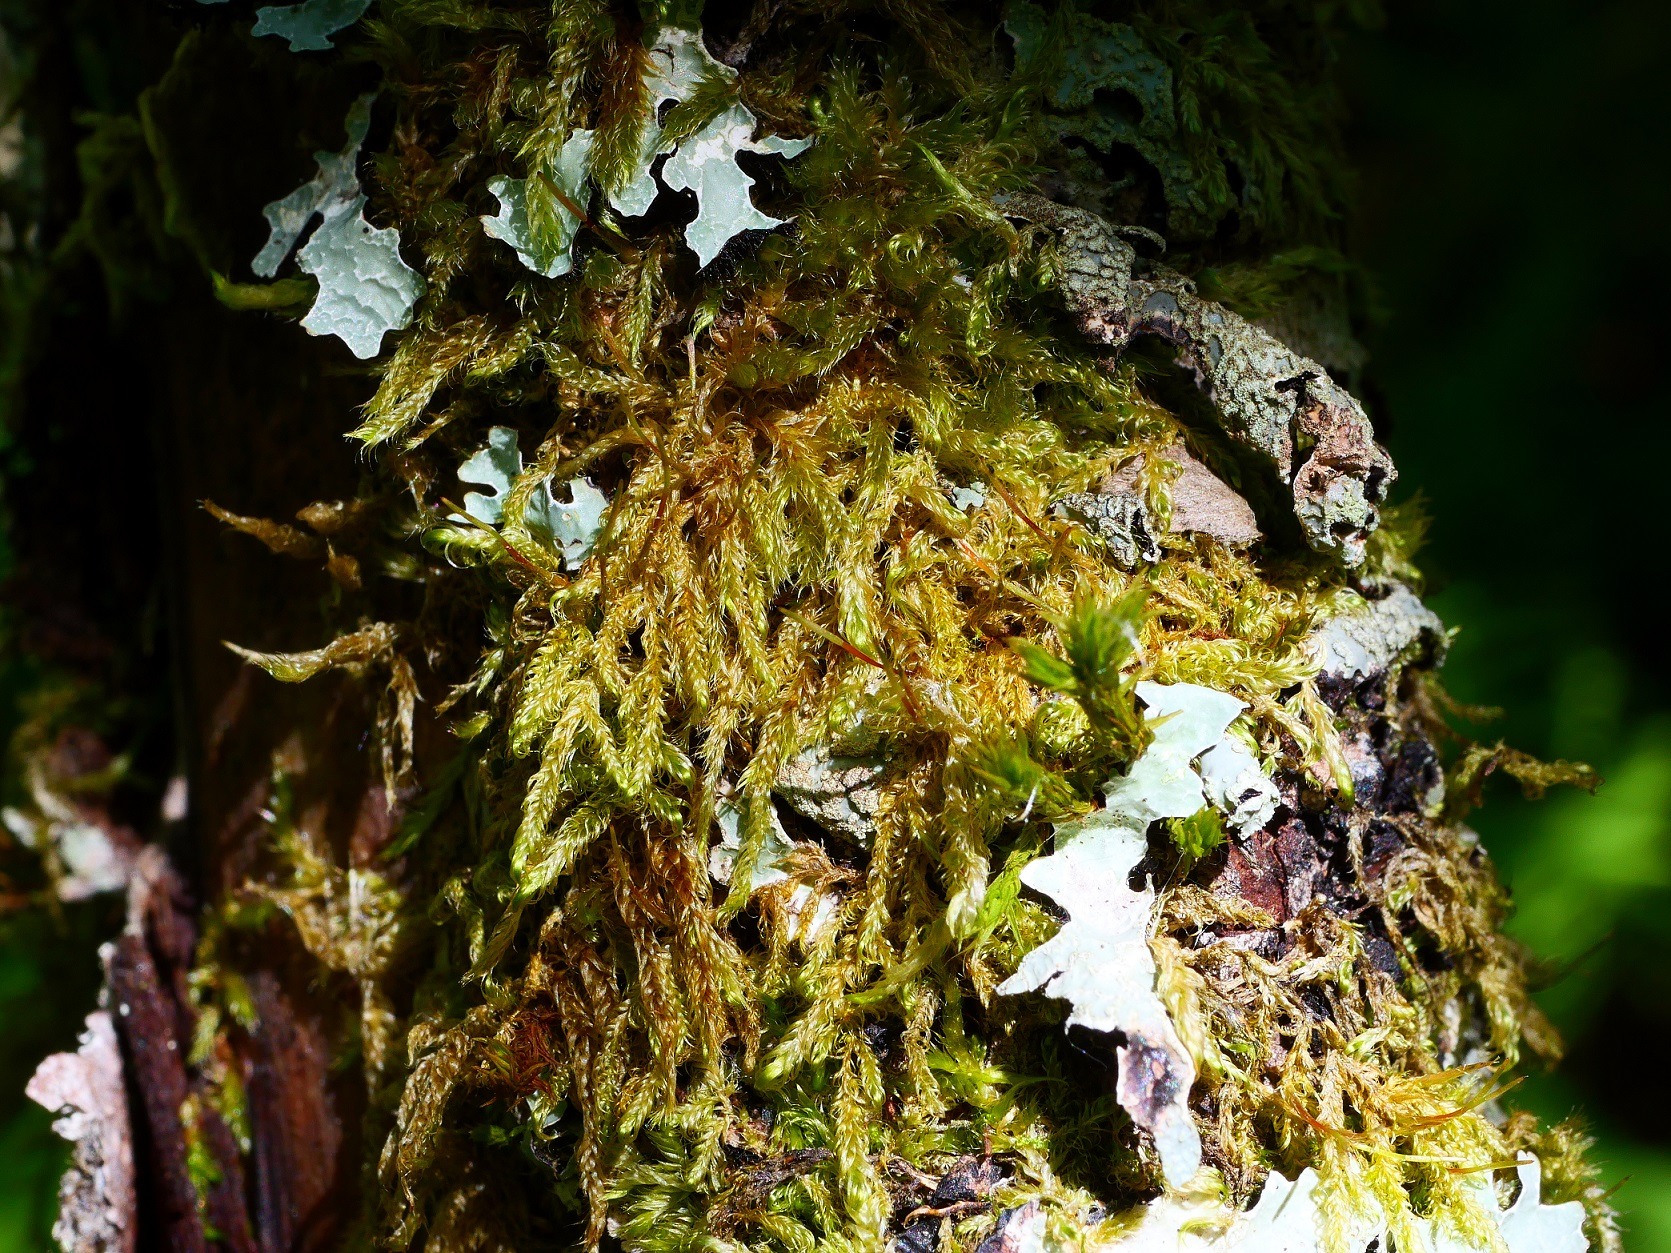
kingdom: Plantae
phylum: Bryophyta
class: Bryopsida
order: Hypnales
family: Scorpidiaceae
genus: Sanionia
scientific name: Sanionia uncinata
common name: Stribet krogblad
